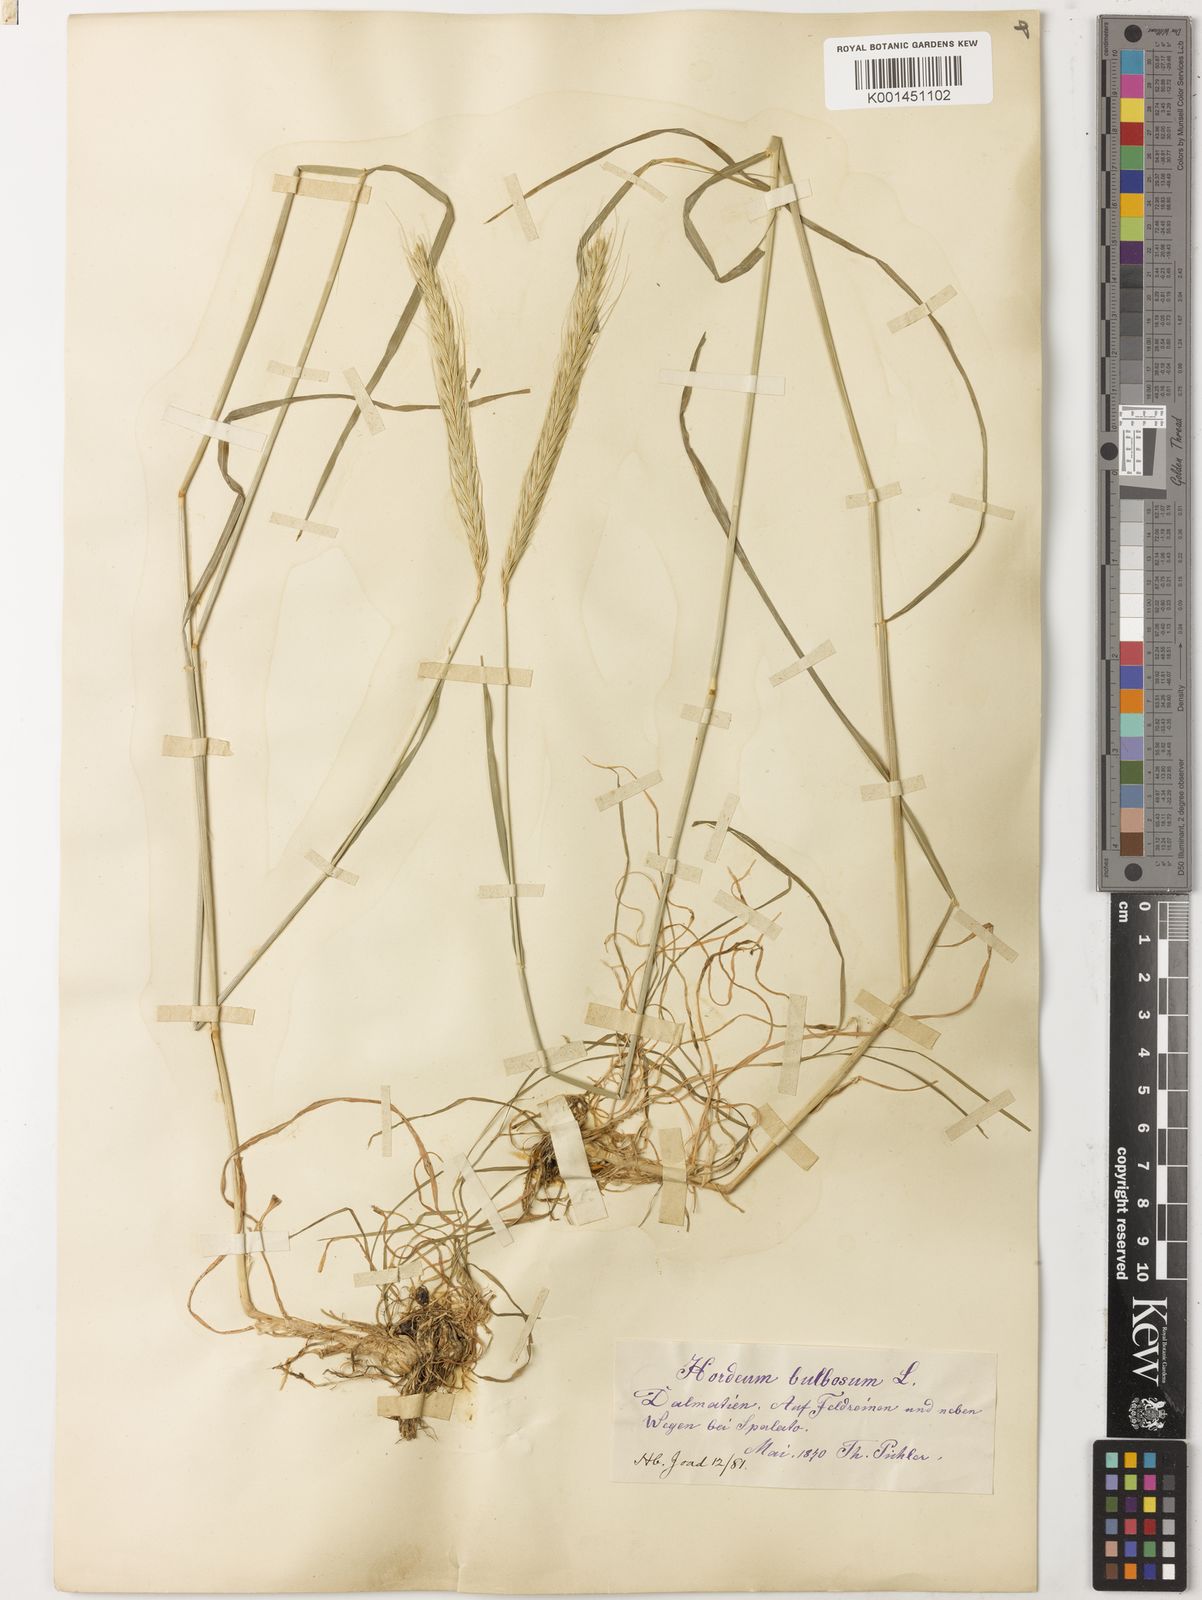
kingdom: Plantae
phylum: Tracheophyta
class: Liliopsida
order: Poales
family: Poaceae
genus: Hordeum
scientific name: Hordeum bulbosum
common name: Bulbous barley
